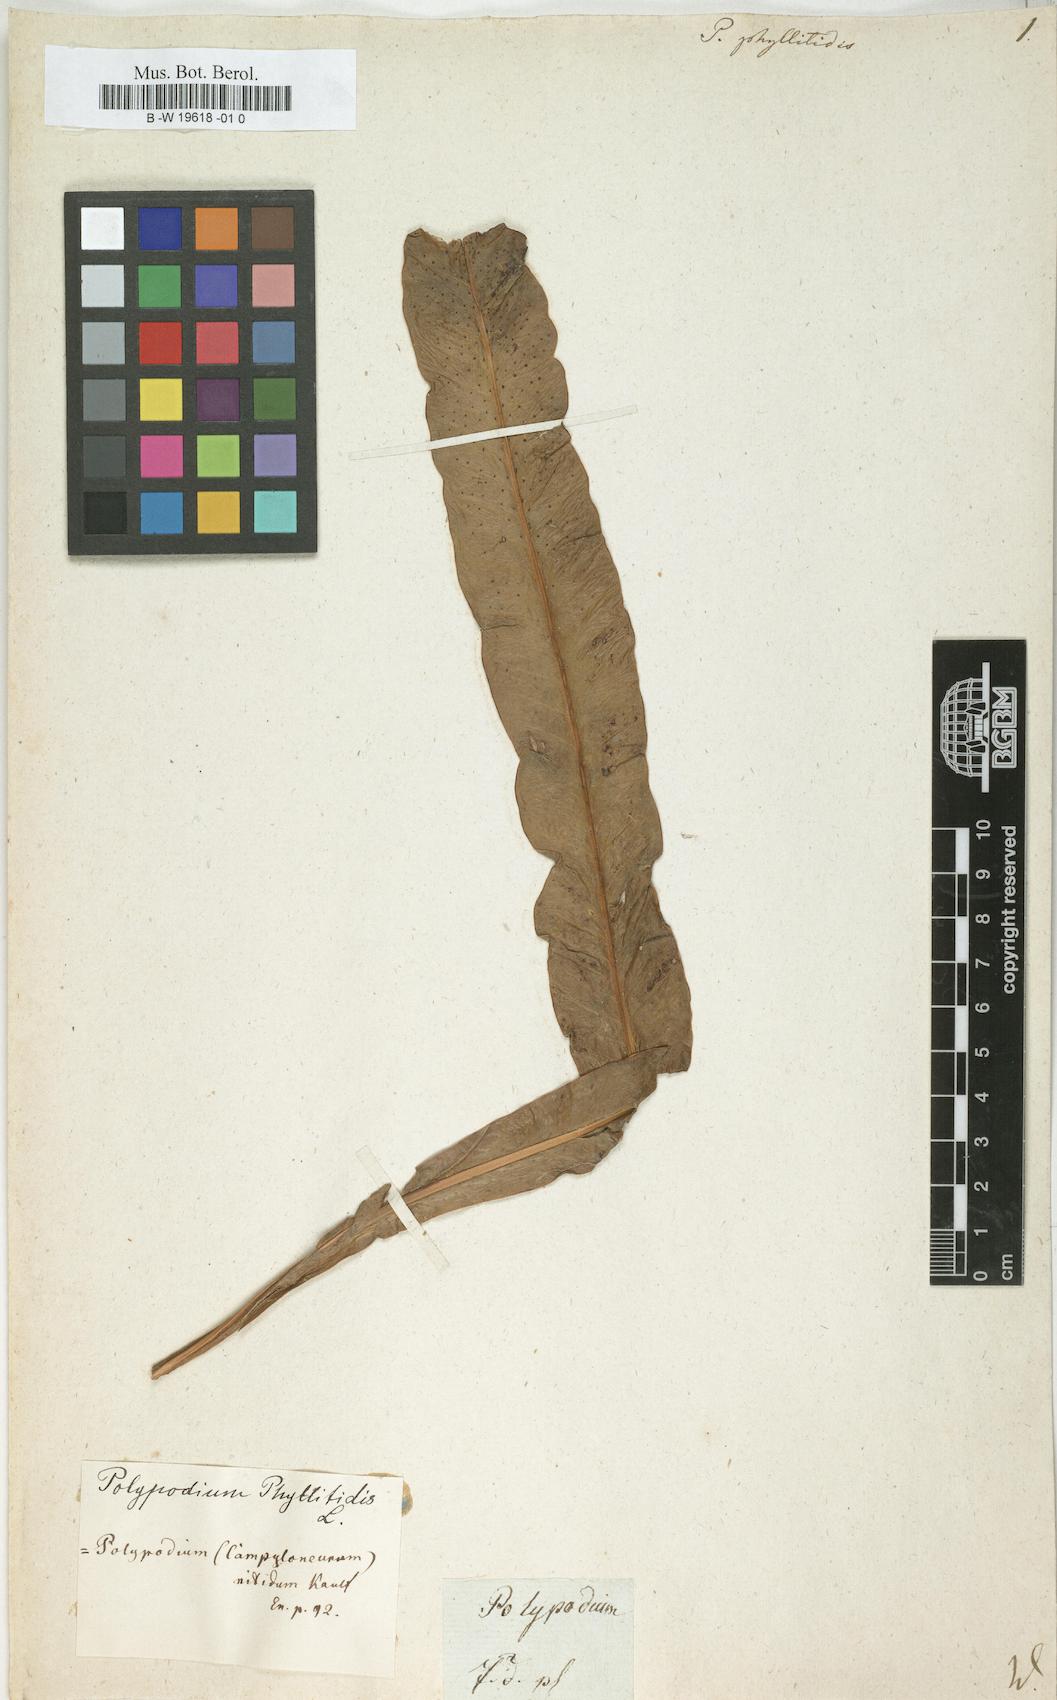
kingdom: Plantae
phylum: Tracheophyta
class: Polypodiopsida
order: Polypodiales
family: Polypodiaceae
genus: Polypodium
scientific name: Polypodium phyllitidis
